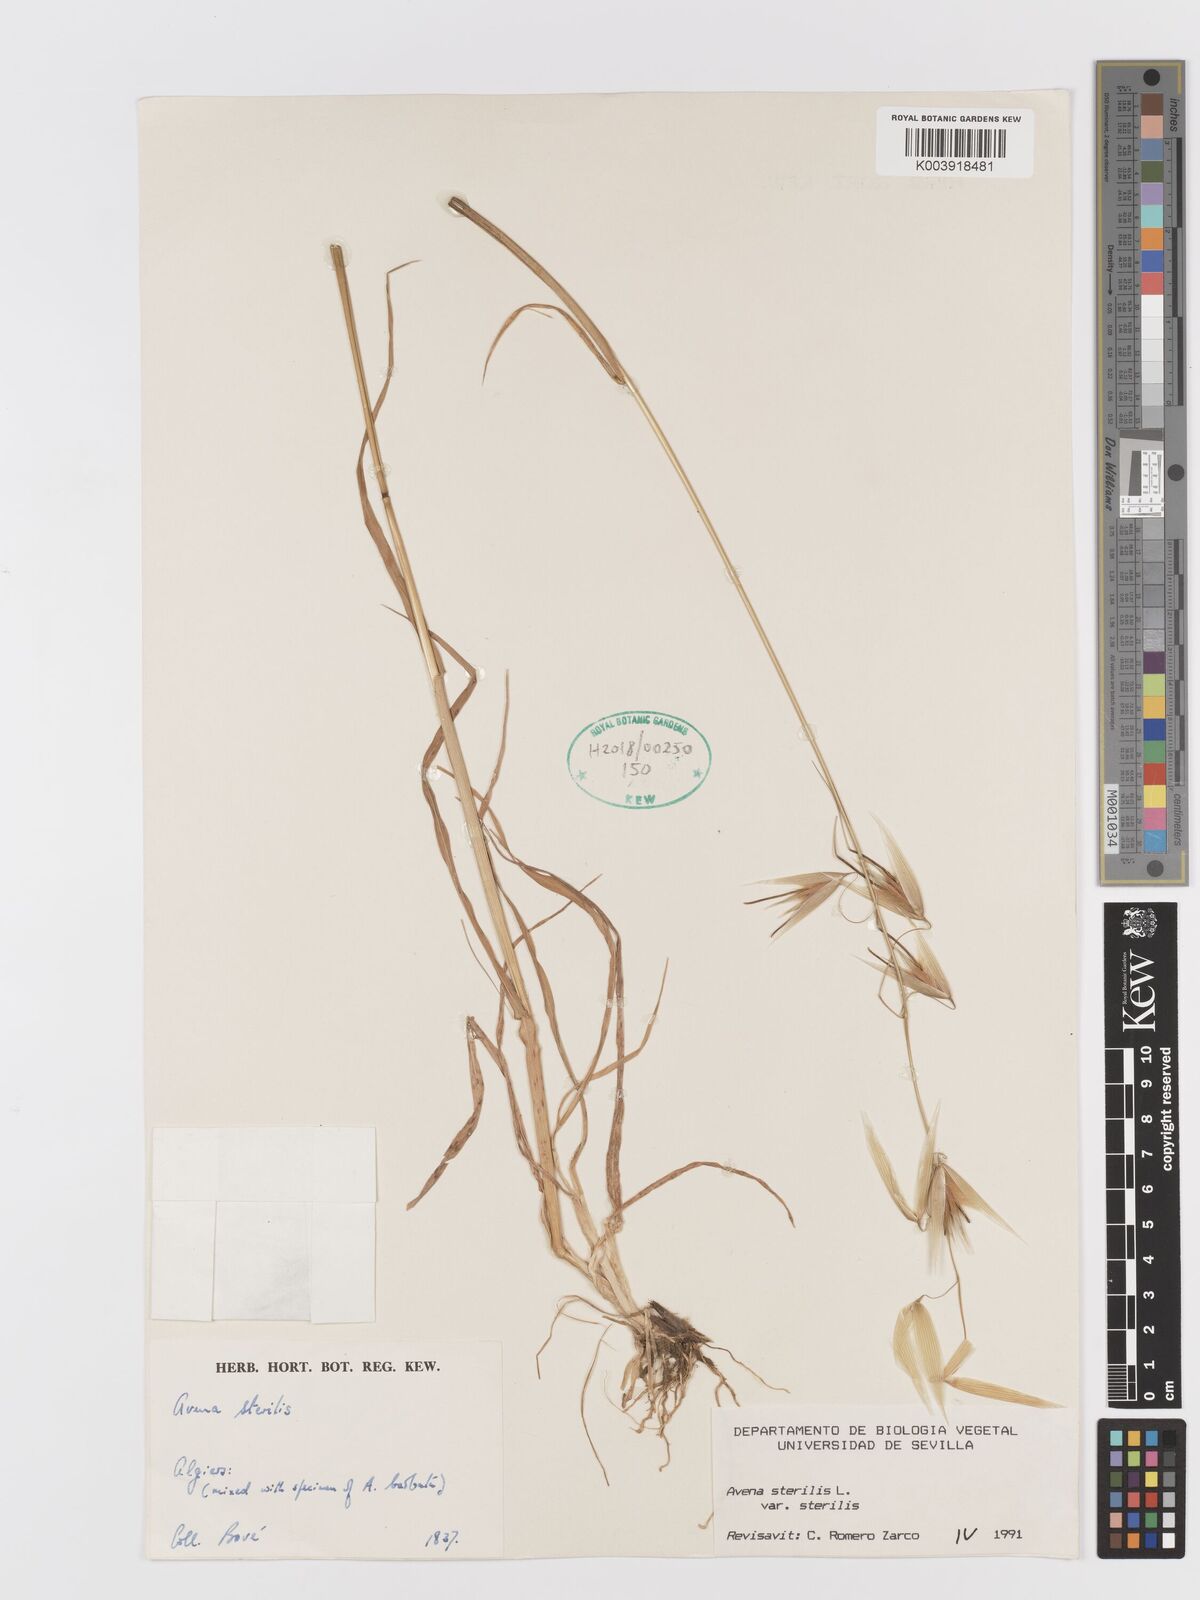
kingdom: Plantae
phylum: Tracheophyta
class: Liliopsida
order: Poales
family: Poaceae
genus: Avena
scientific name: Avena sterilis
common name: Animated oat
